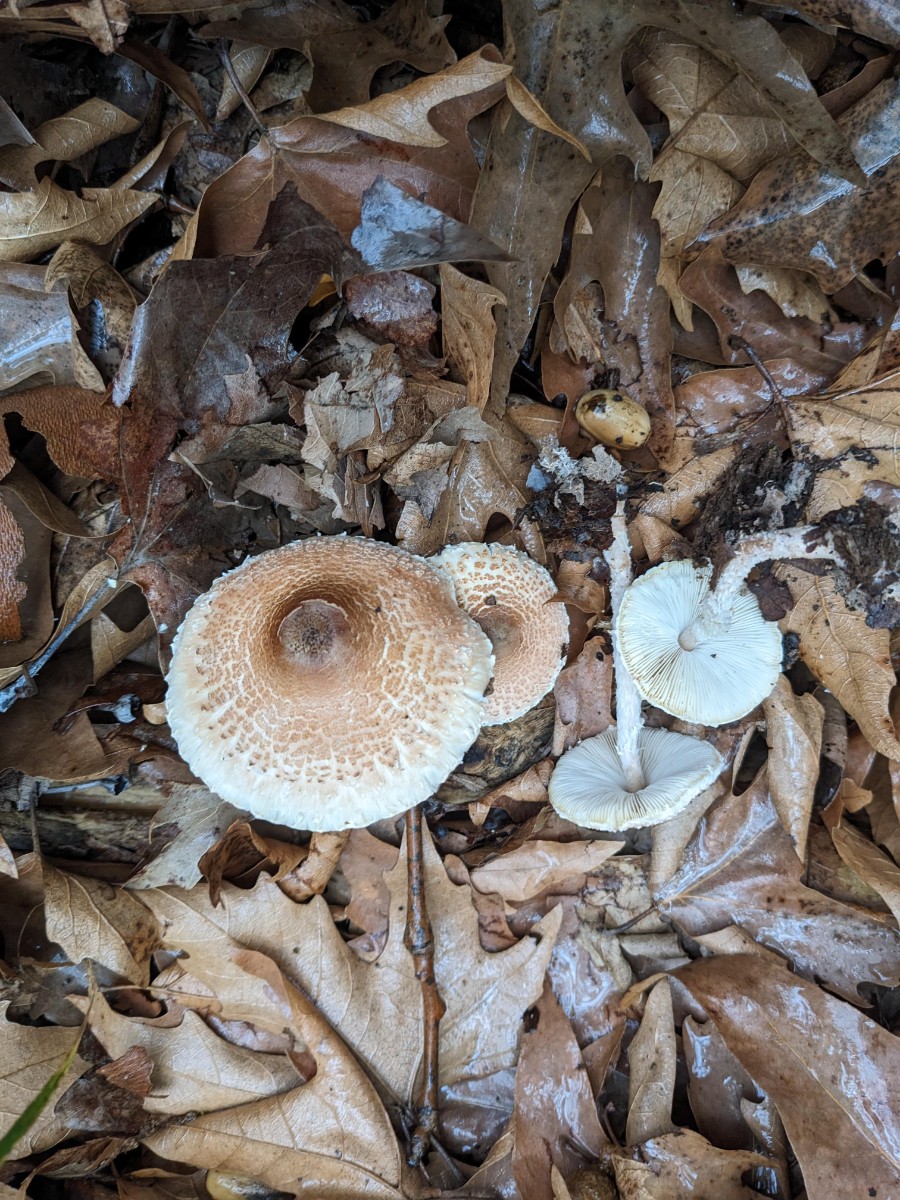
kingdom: Fungi
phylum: Basidiomycota
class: Agaricomycetes
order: Agaricales
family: Agaricaceae
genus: Lepiota
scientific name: Lepiota
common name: parasolhat
